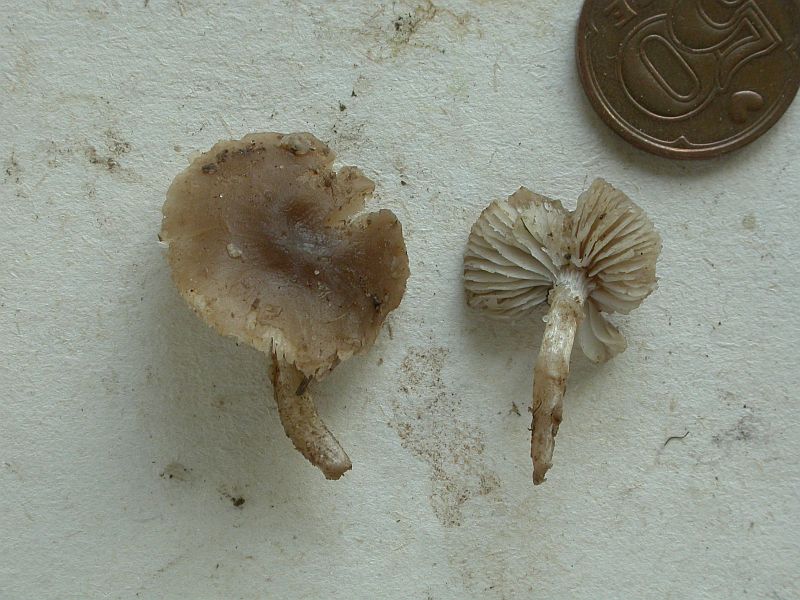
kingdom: Fungi
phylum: Basidiomycota
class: Agaricomycetes
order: Agaricales
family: Tricholomataceae
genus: Dermoloma
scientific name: Dermoloma cuneifolium
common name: eng-nonnehat
